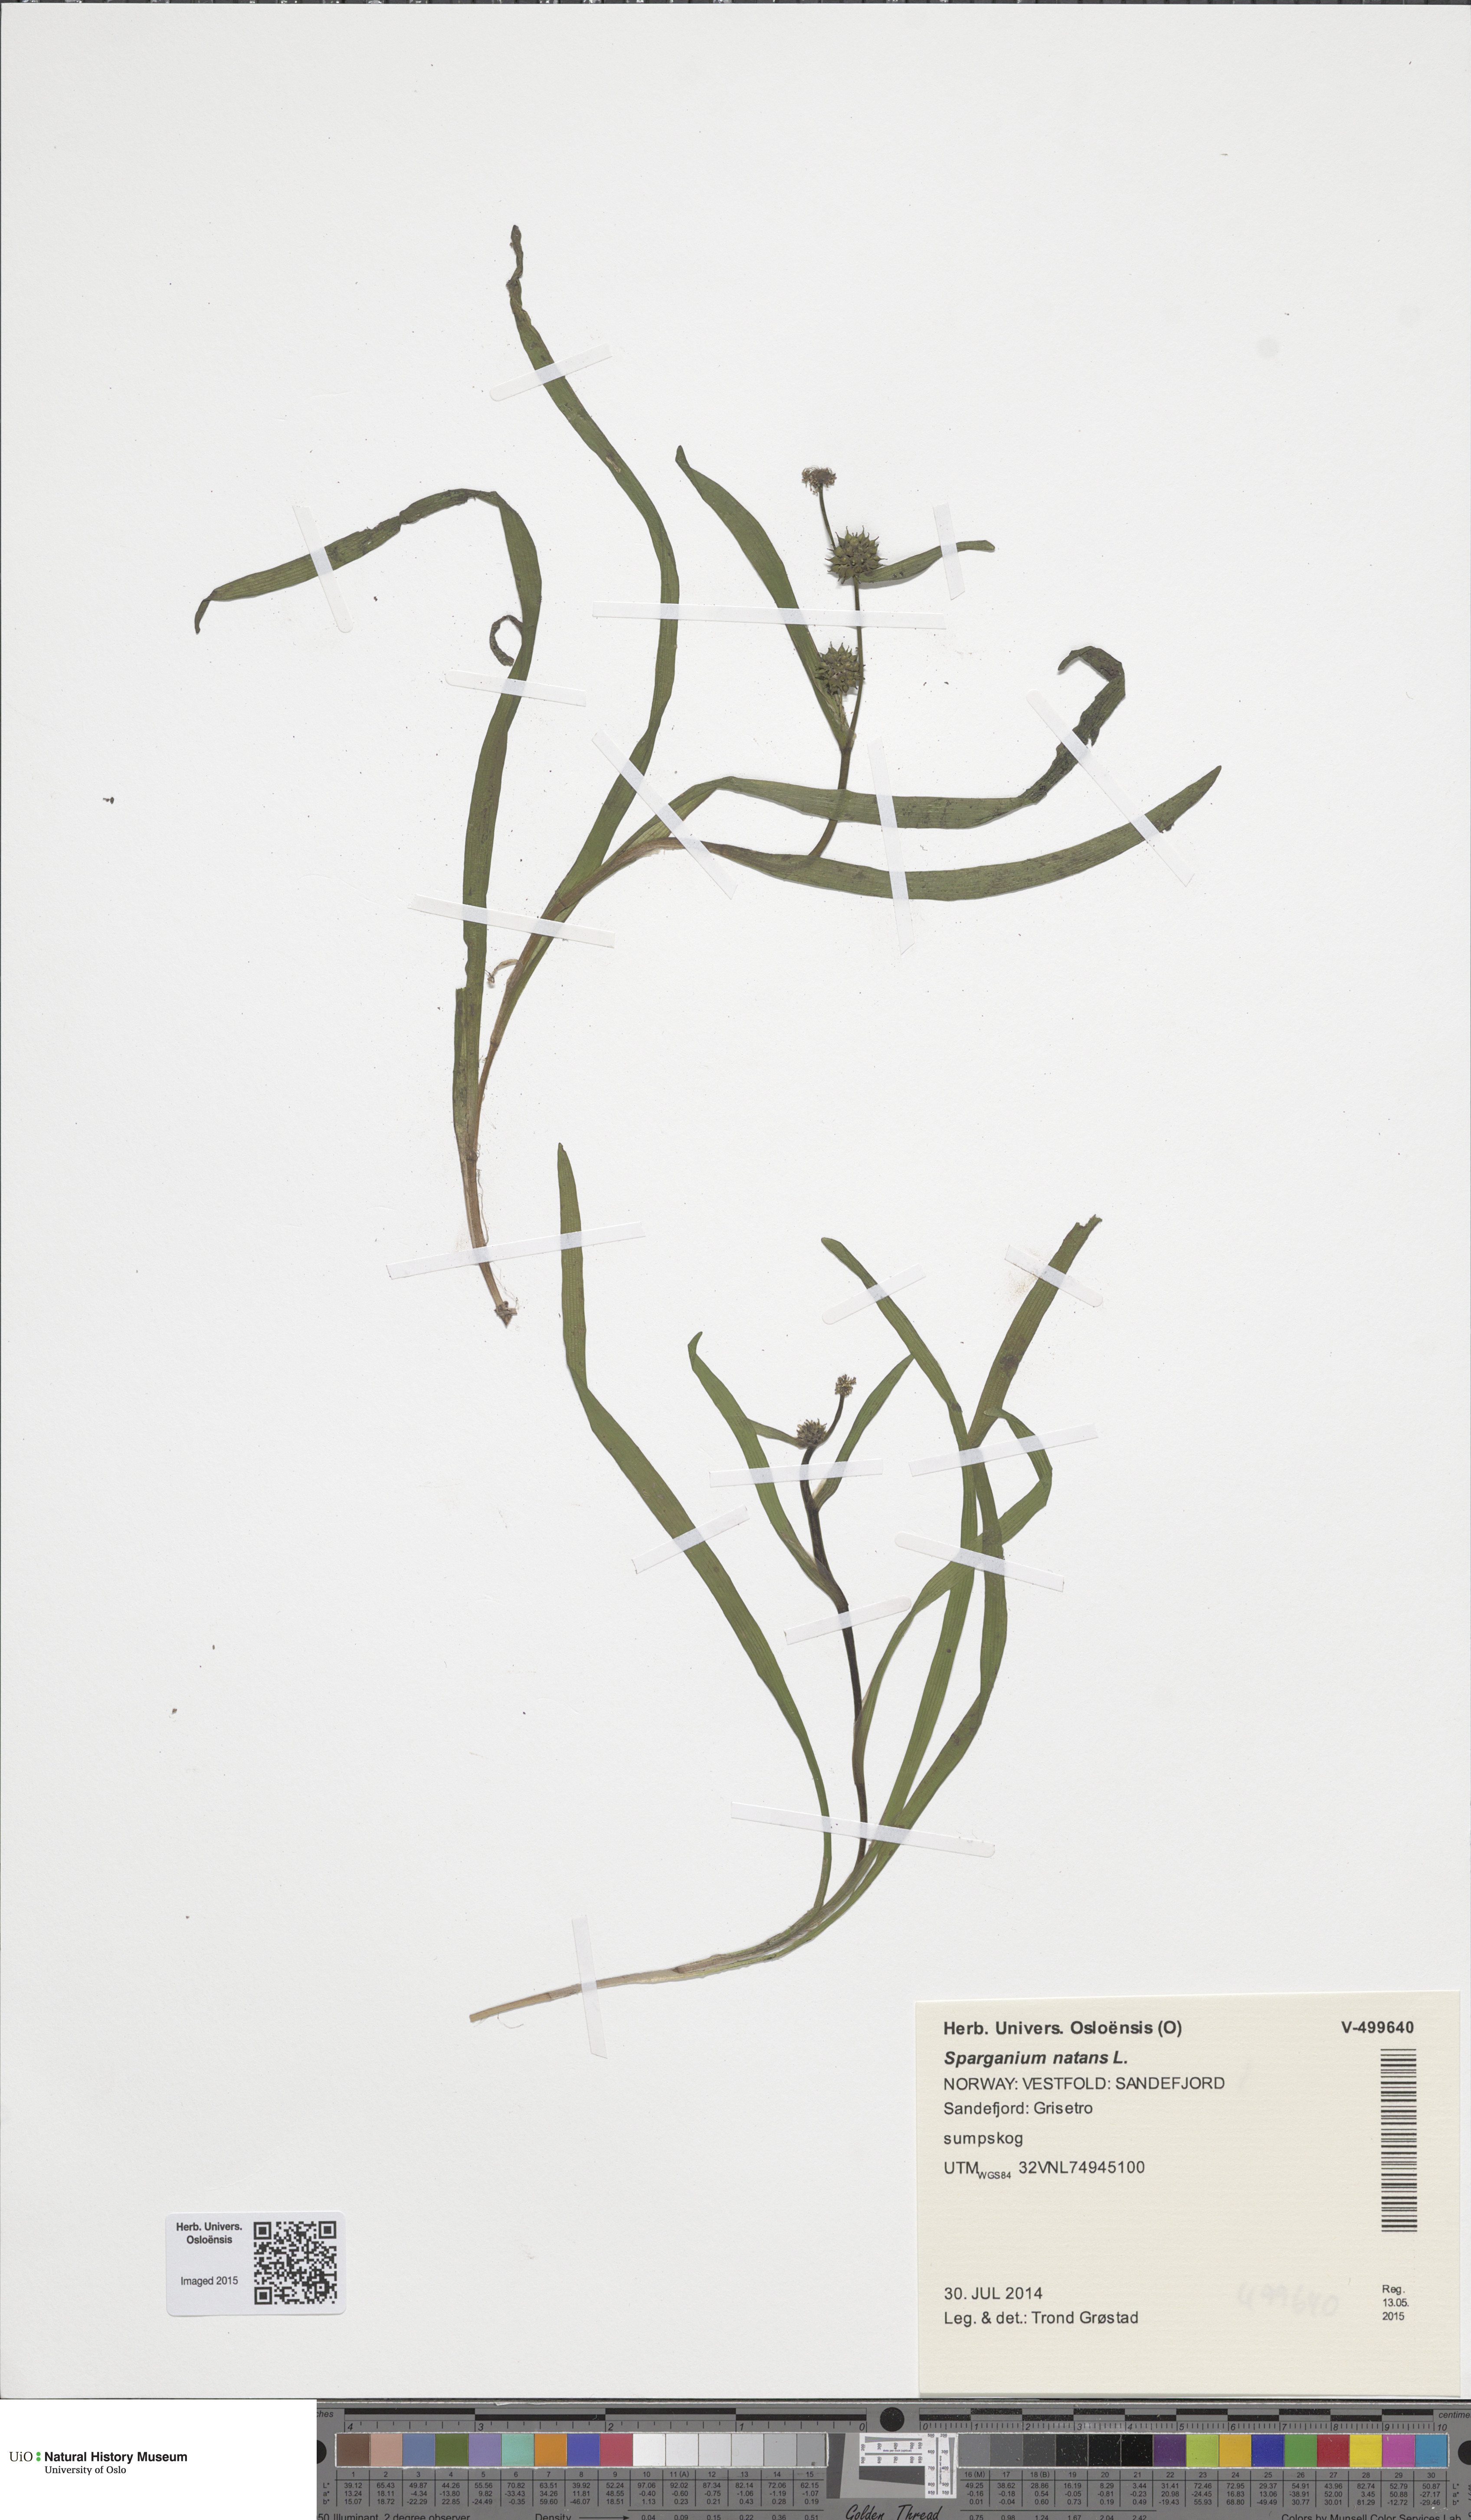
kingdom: Plantae
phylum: Tracheophyta
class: Liliopsida
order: Poales
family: Typhaceae
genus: Sparganium
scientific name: Sparganium natans
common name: Least bur-reed
